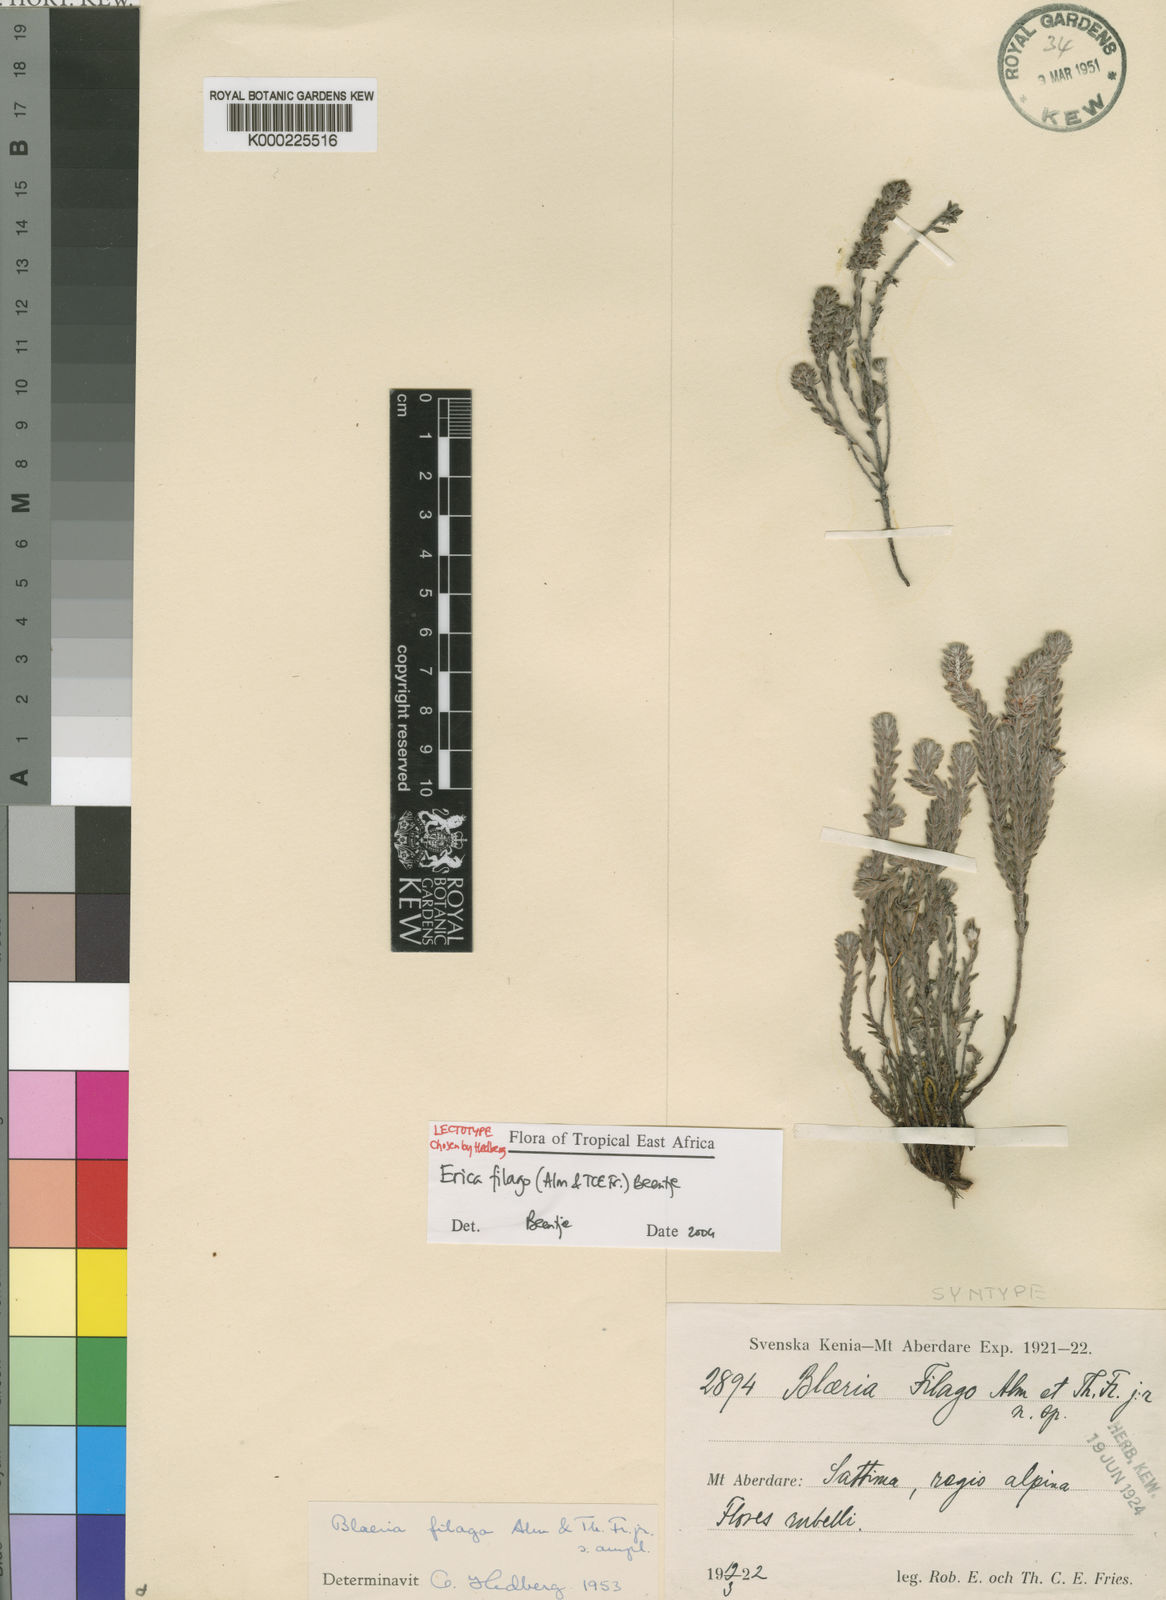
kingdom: Plantae
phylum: Tracheophyta
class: Magnoliopsida
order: Ericales
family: Ericaceae
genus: Erica
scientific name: Erica filago
